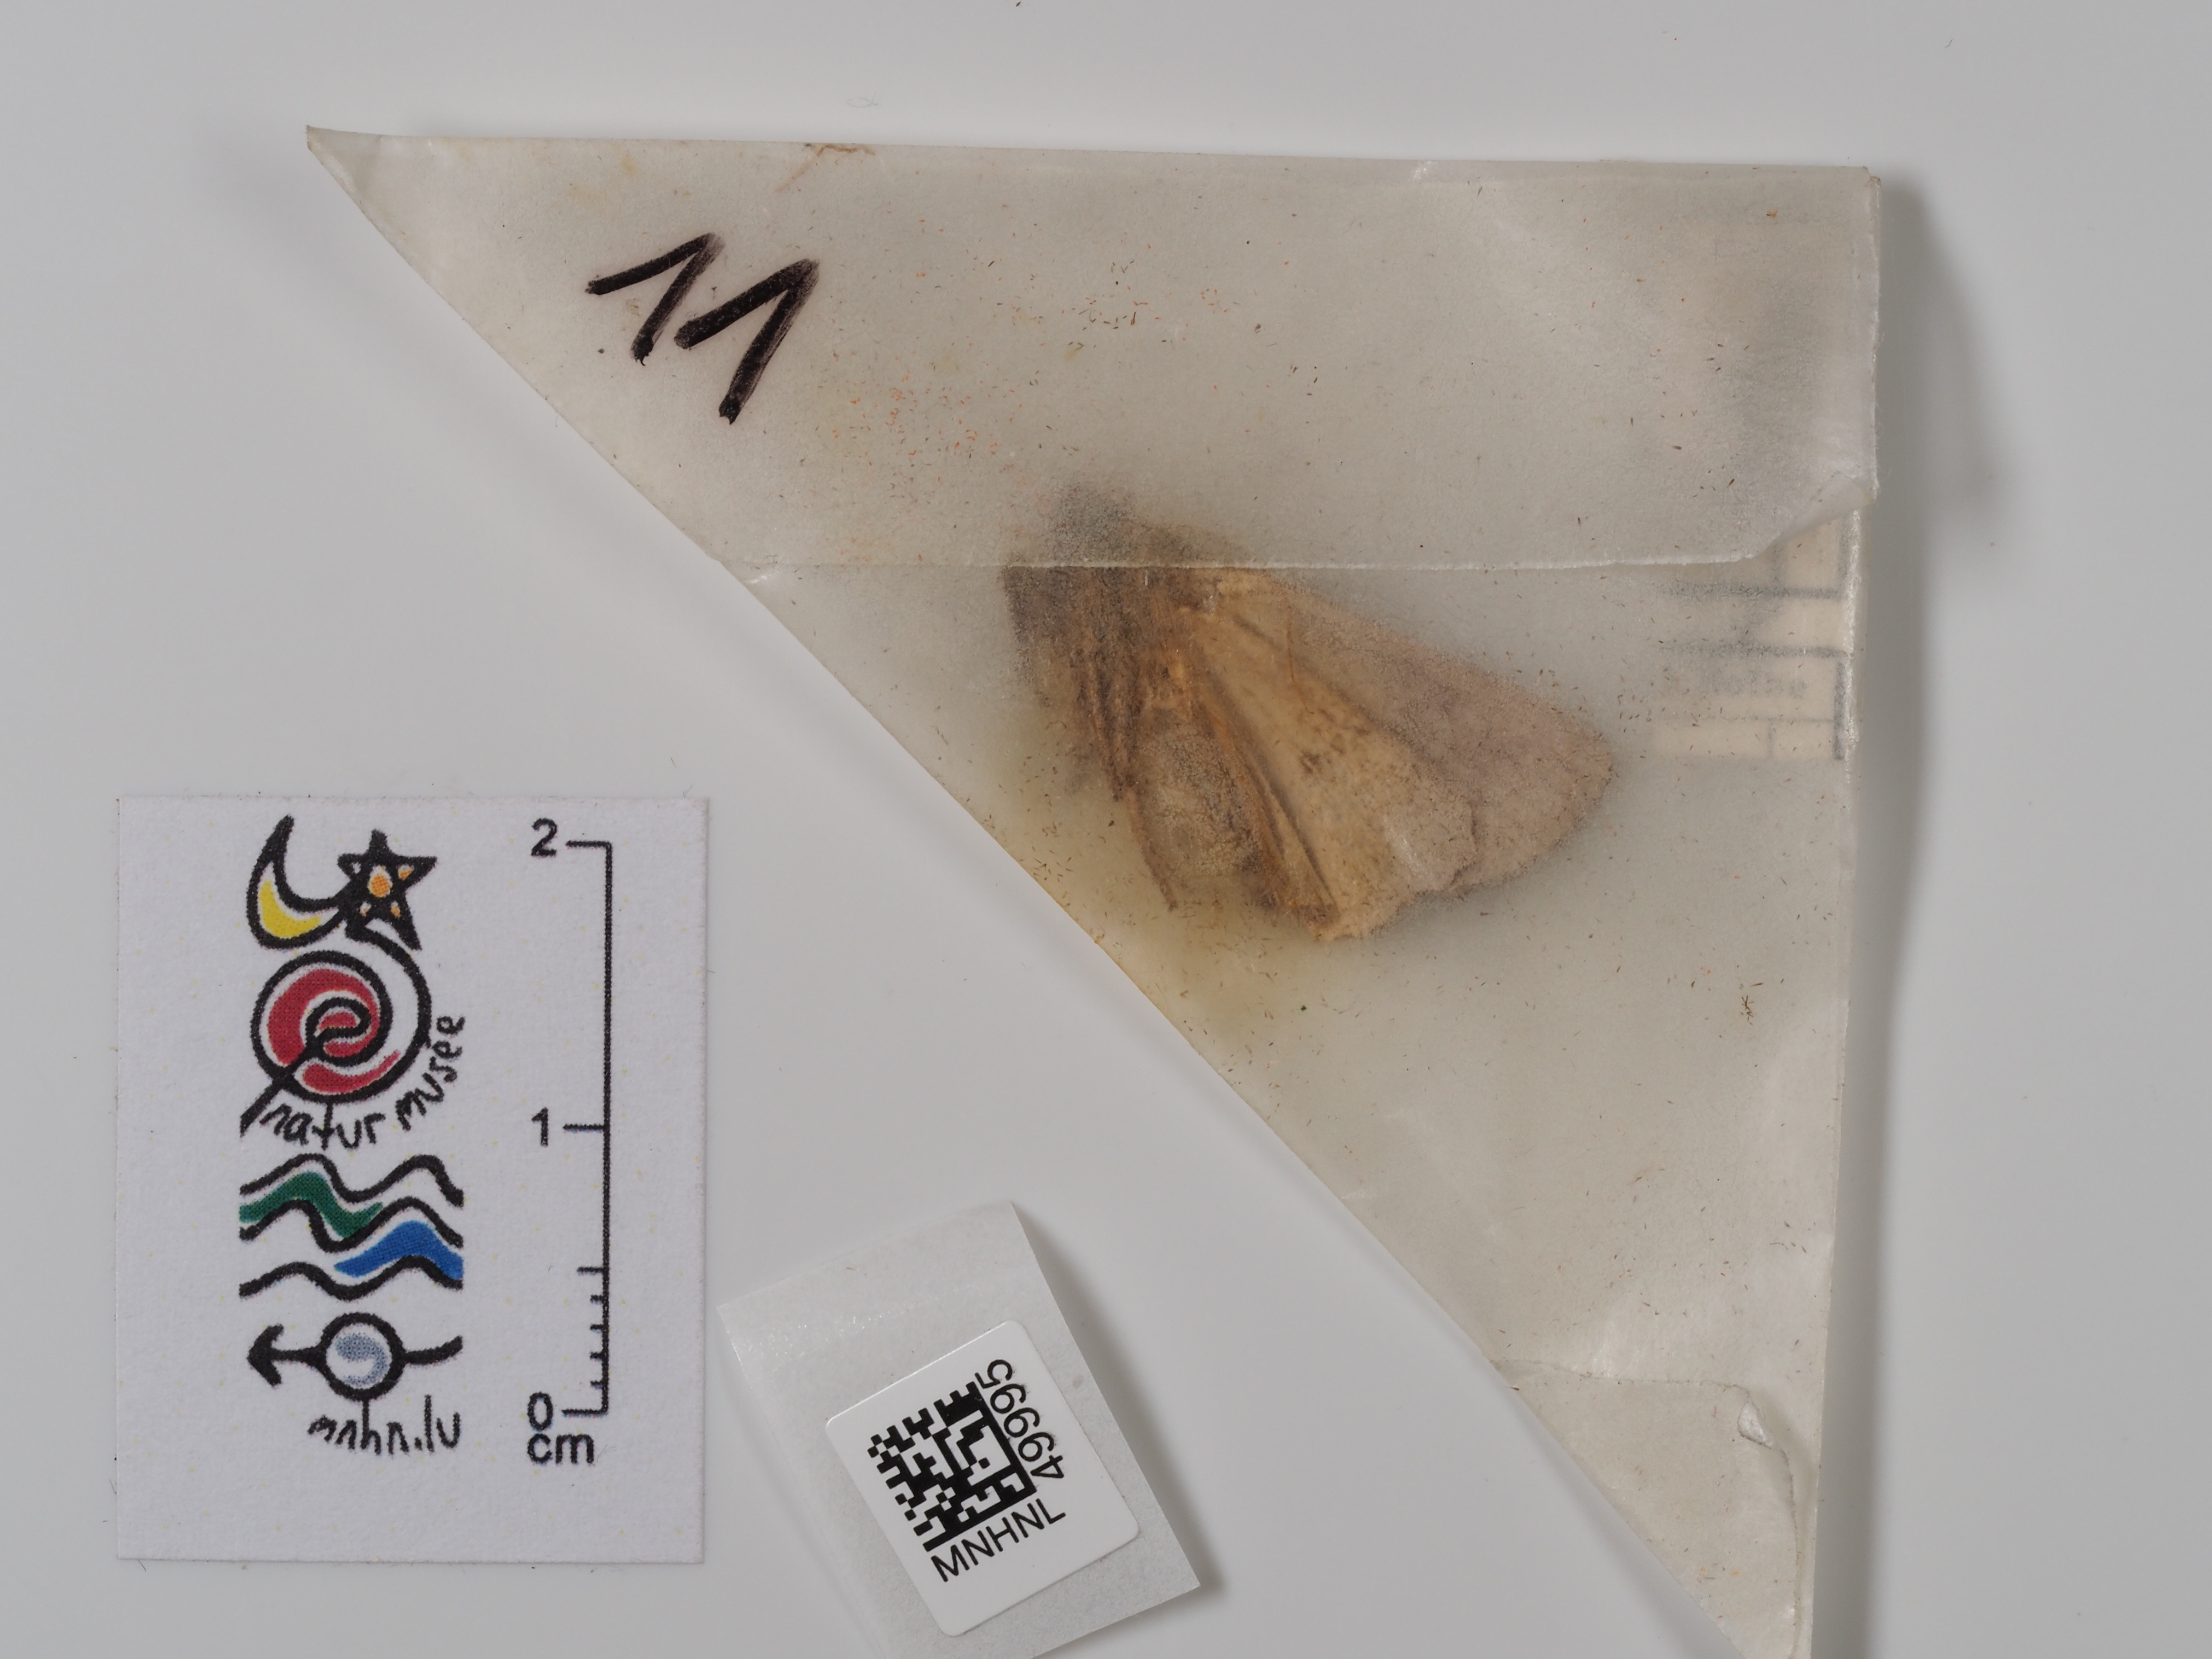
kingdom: Animalia
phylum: Arthropoda
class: Insecta
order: Lepidoptera
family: Noctuidae
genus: Amphipyra
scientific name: Amphipyra tragopoginis
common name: Mouse moth
